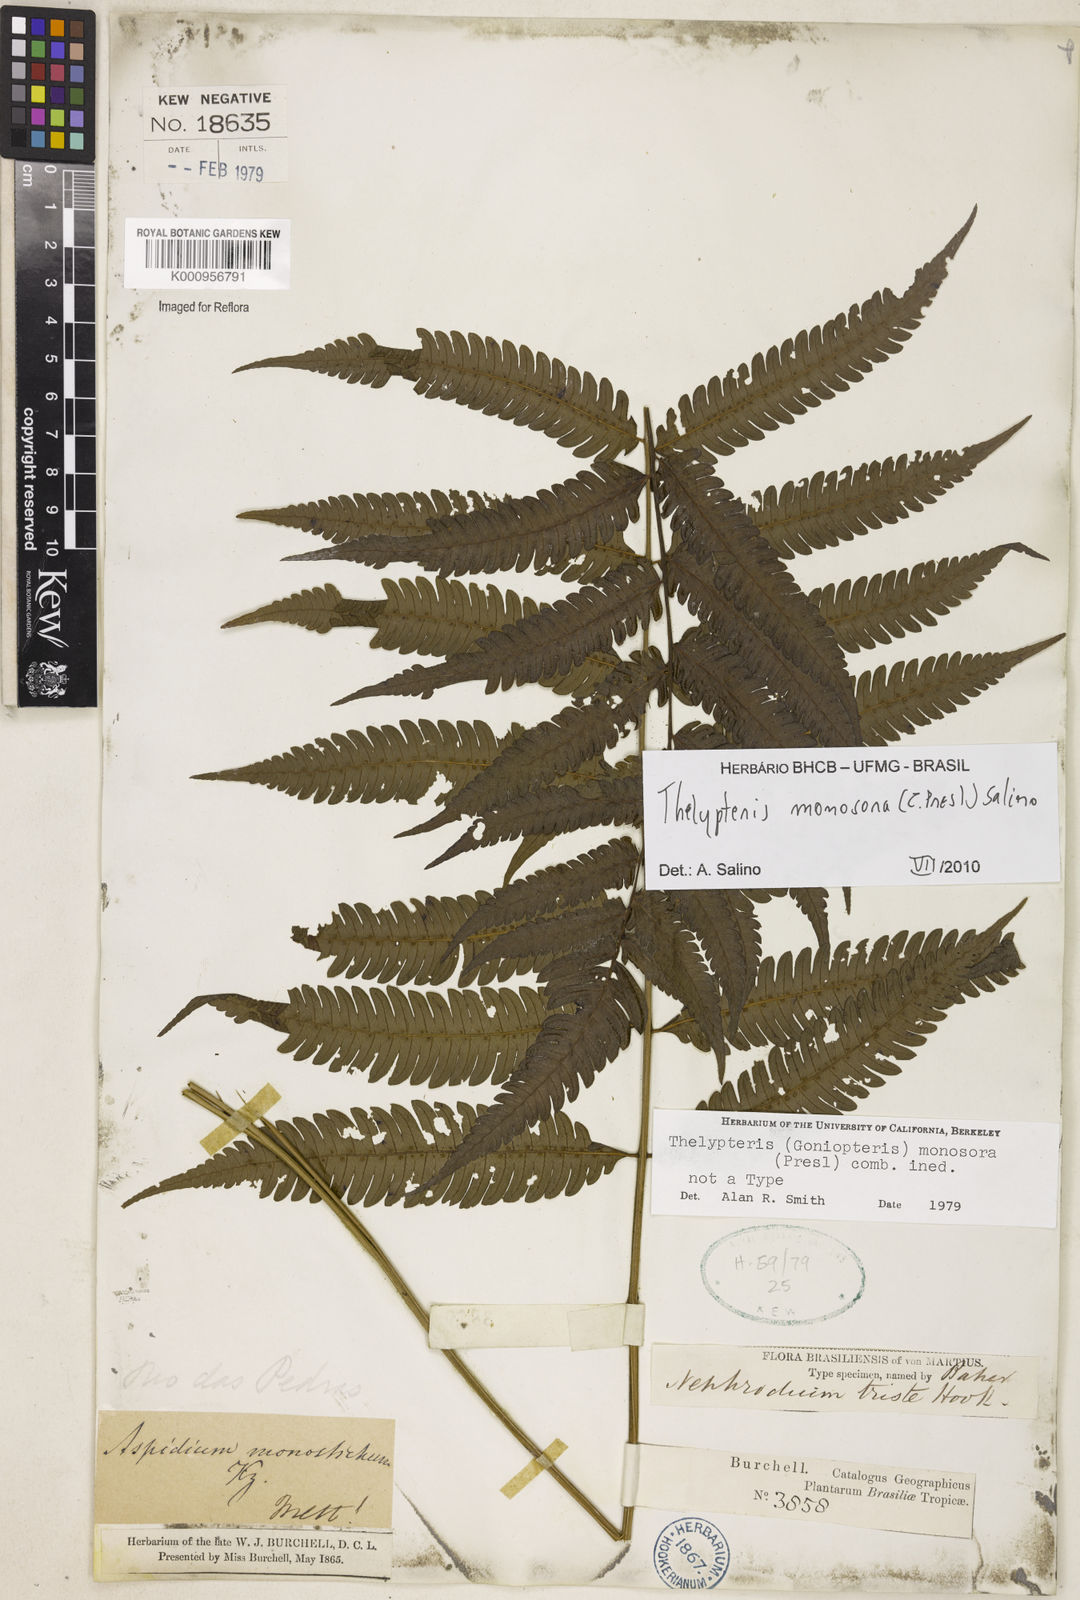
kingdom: Plantae
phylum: Tracheophyta
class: Polypodiopsida
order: Polypodiales
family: Thelypteridaceae
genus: Goniopteris
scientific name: Goniopteris monosora
